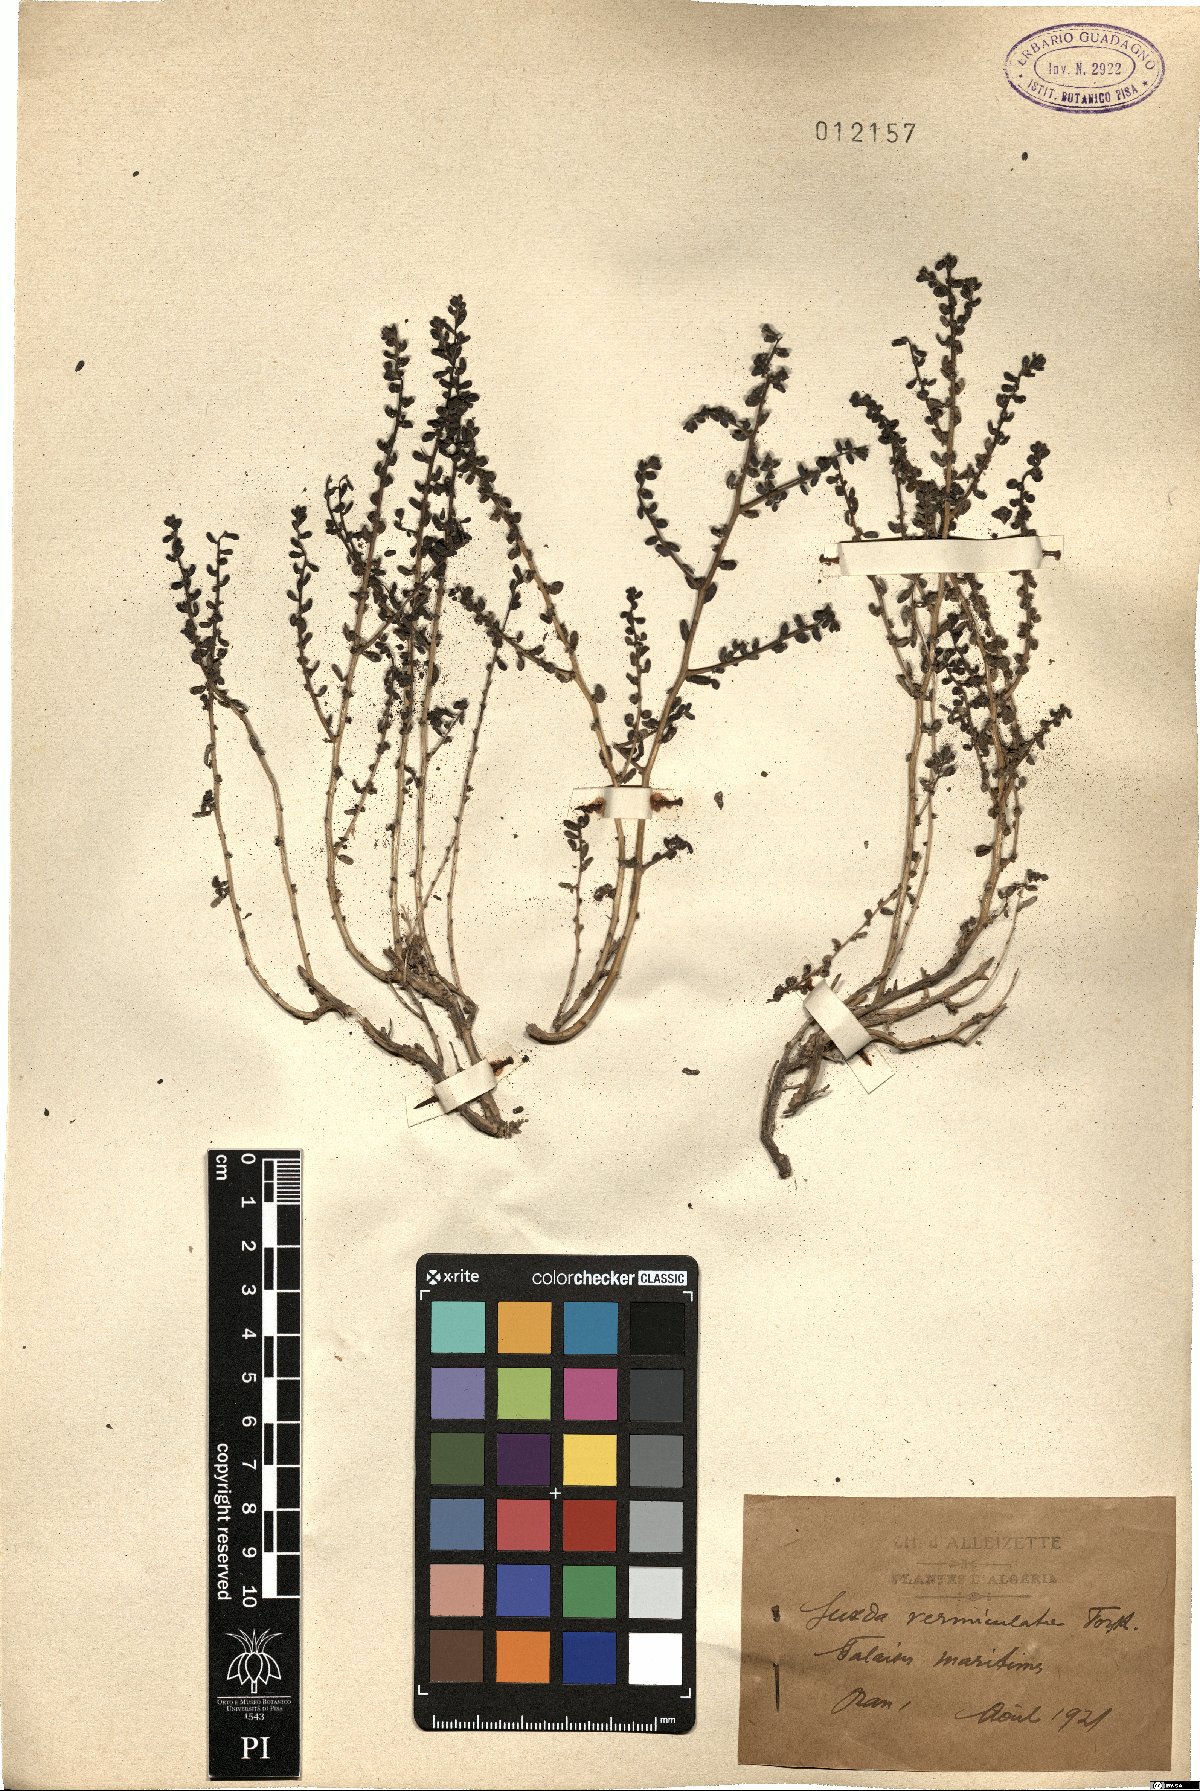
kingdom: Plantae
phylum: Tracheophyta
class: Magnoliopsida
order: Caryophyllales
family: Amaranthaceae
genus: Suaeda
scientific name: Suaeda vermiculata
